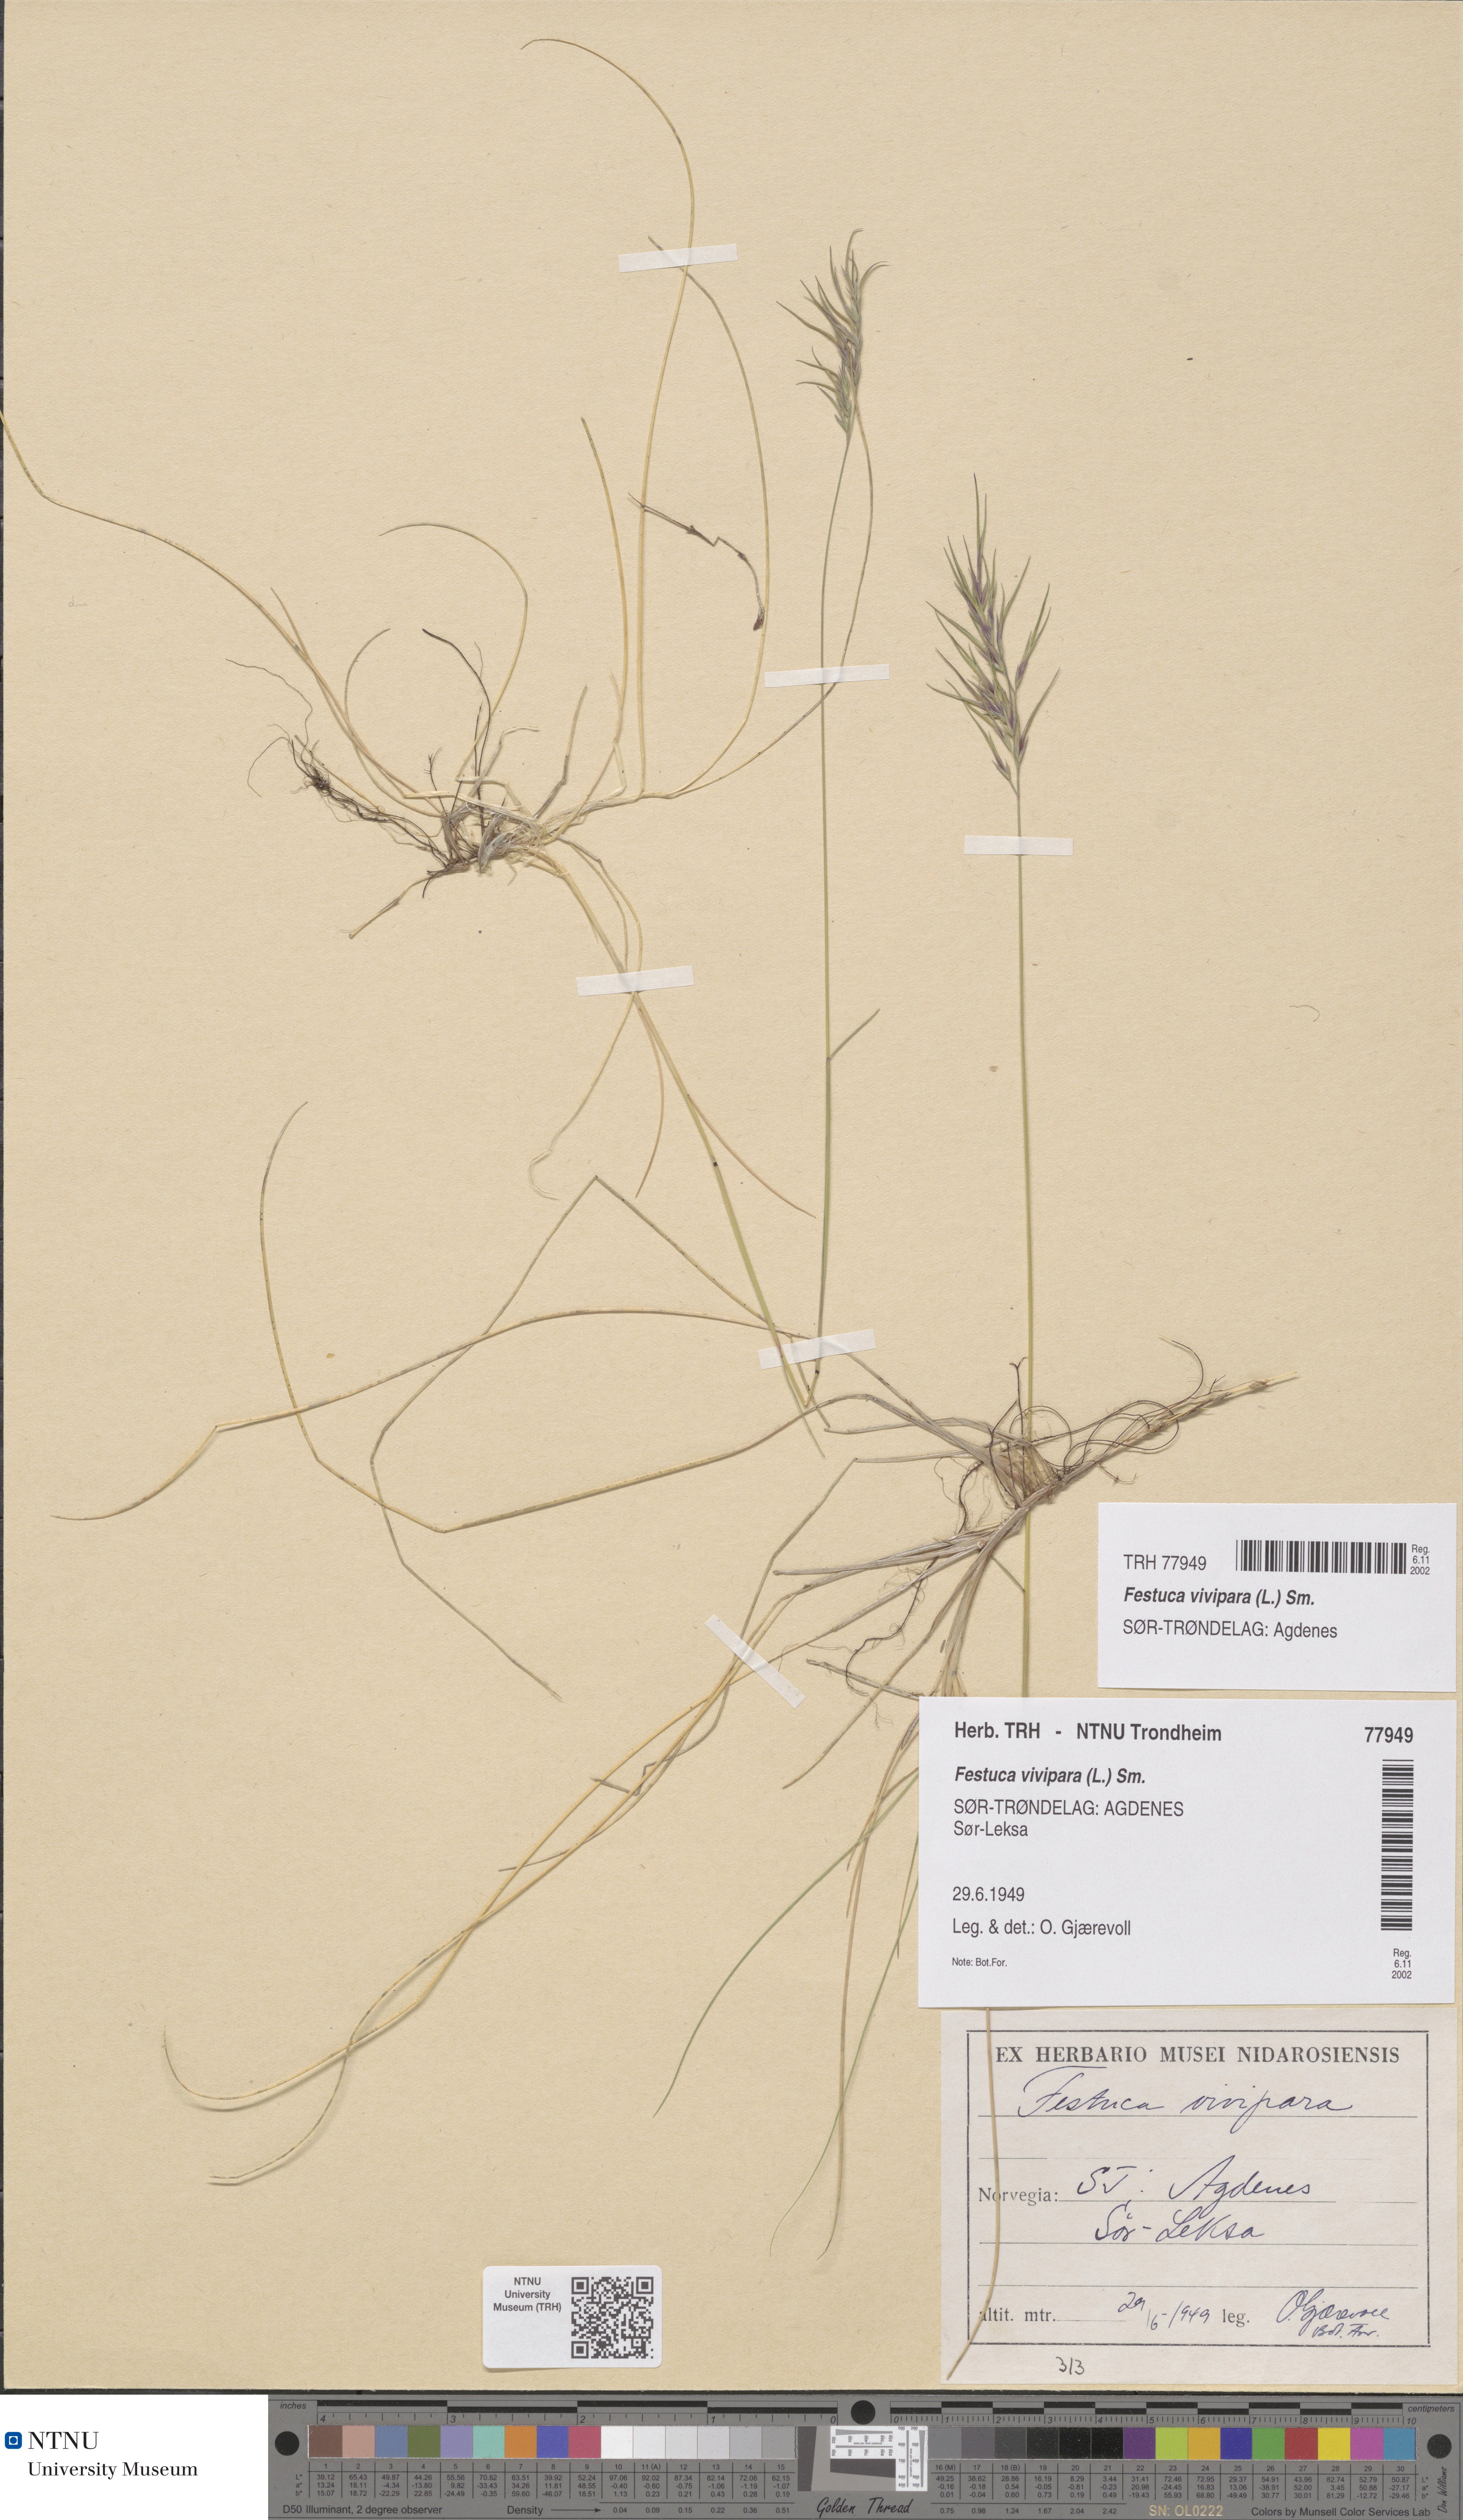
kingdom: Plantae
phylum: Tracheophyta
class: Liliopsida
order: Poales
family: Poaceae
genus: Festuca
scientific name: Festuca vivipara
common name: Viviparous sheep's-fescue
